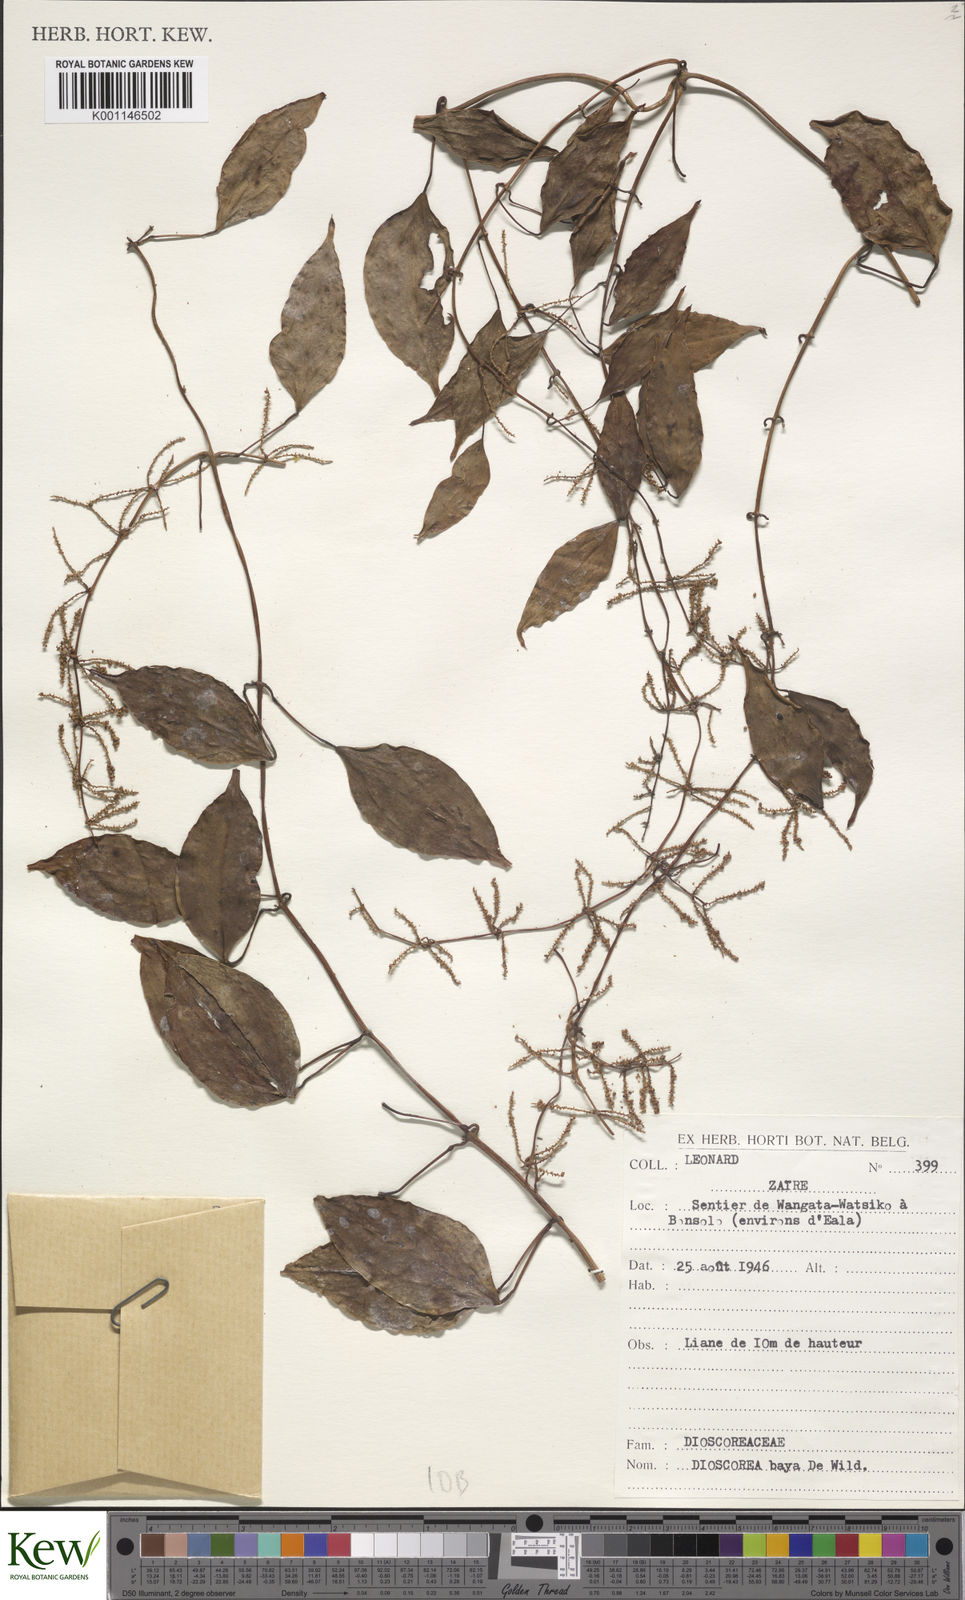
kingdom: Plantae
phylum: Tracheophyta
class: Liliopsida
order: Dioscoreales
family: Dioscoreaceae
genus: Dioscorea
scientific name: Dioscorea baya
